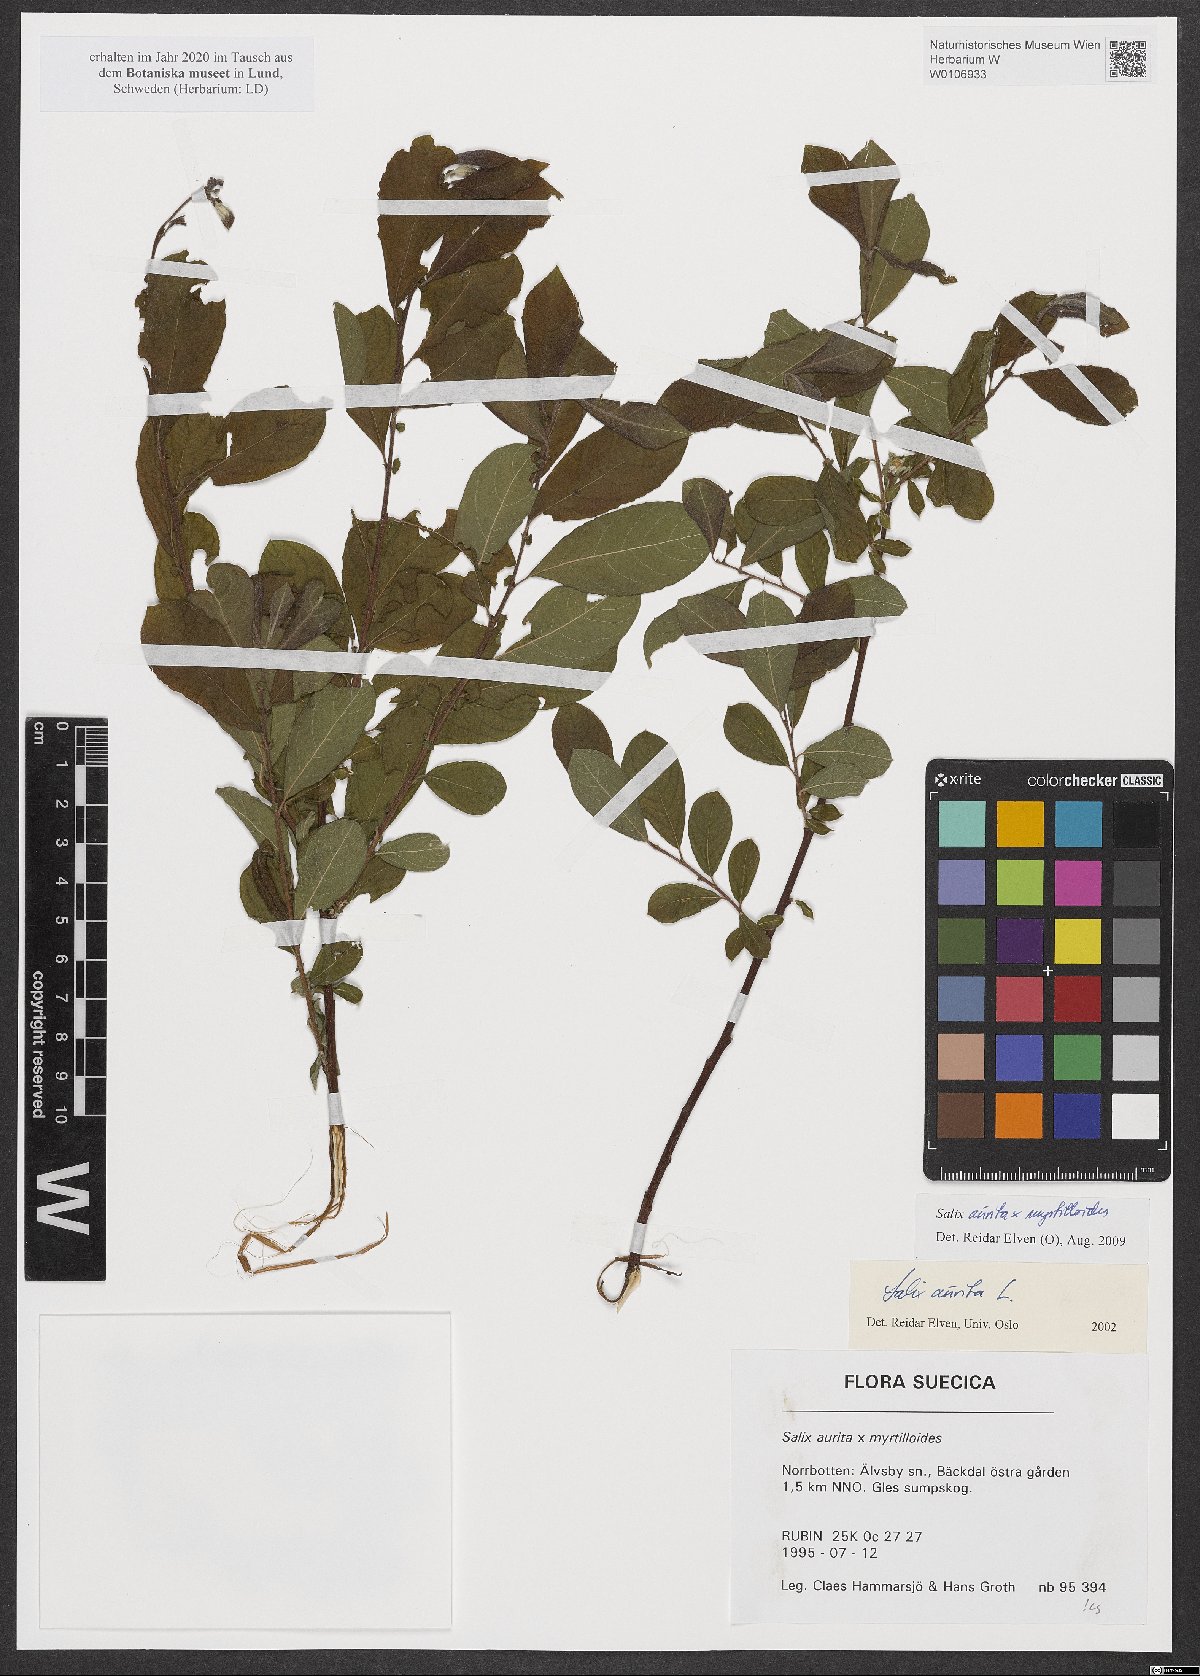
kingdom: Plantae
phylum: Tracheophyta
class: Magnoliopsida
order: Malpighiales
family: Salicaceae
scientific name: Salicaceae
